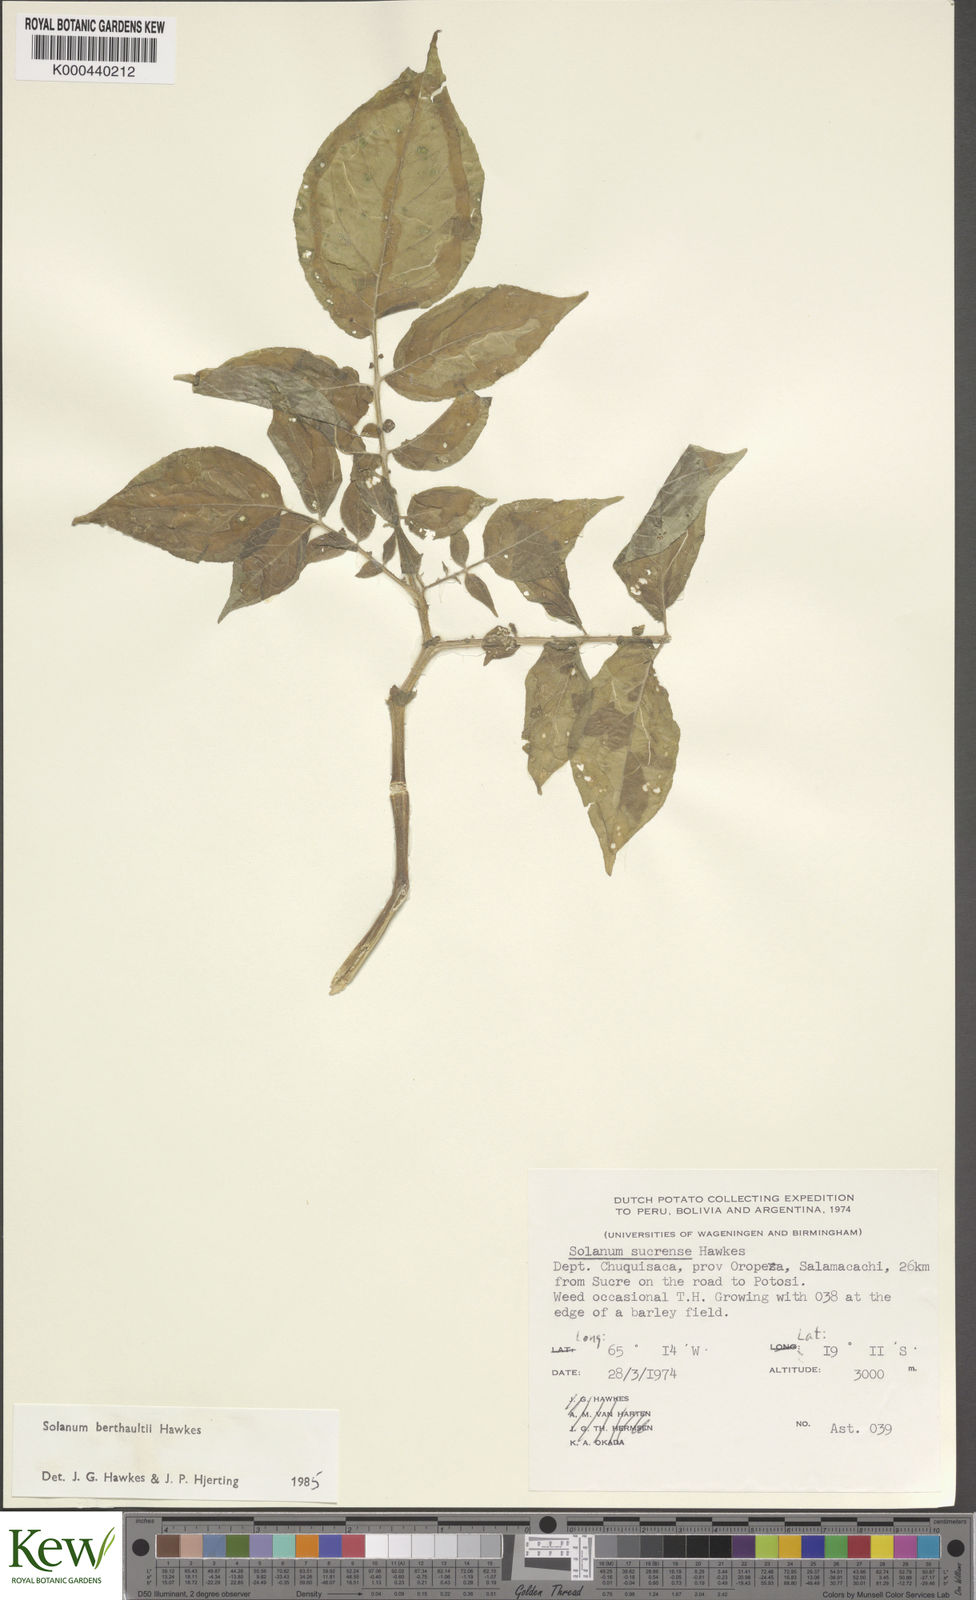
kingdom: Plantae
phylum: Tracheophyta
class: Magnoliopsida
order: Solanales
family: Solanaceae
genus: Solanum
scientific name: Solanum berthaultii
